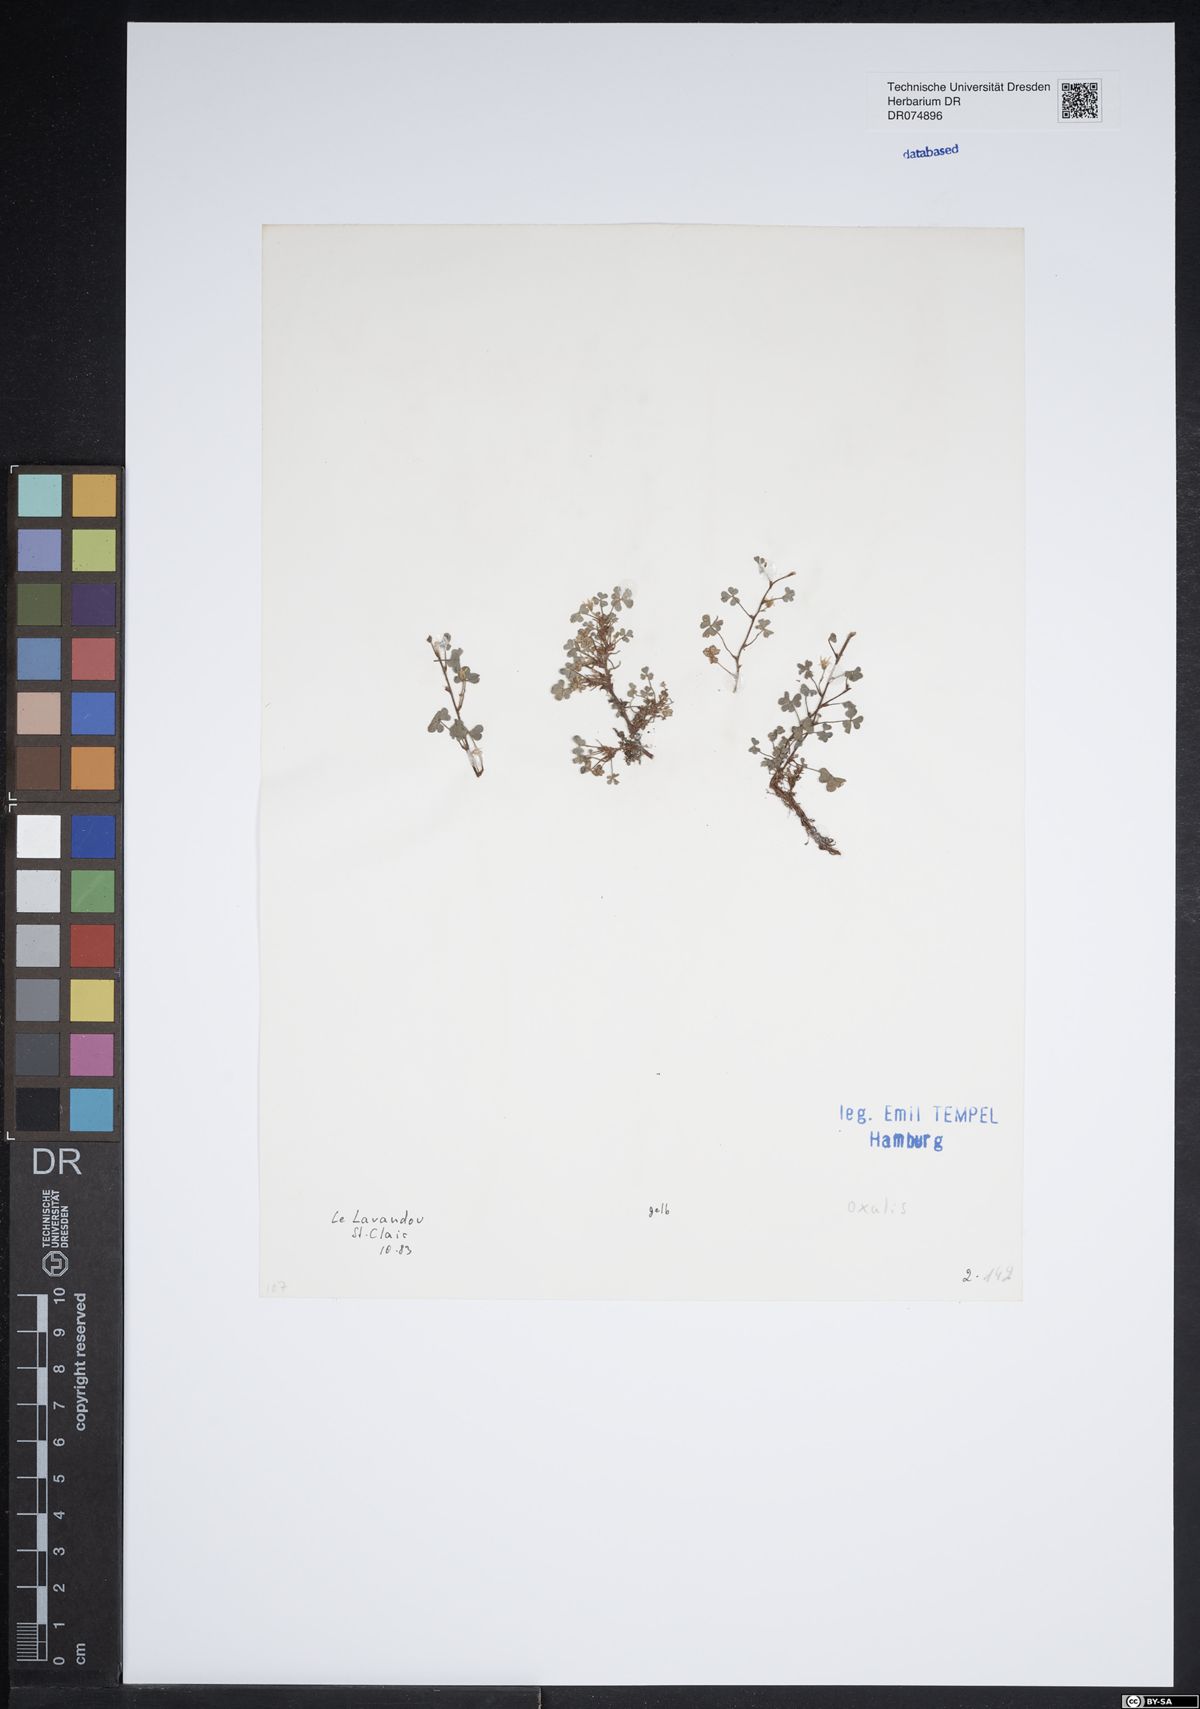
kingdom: Plantae
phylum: Tracheophyta
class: Magnoliopsida
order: Oxalidales
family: Oxalidaceae
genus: Oxalis
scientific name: Oxalis
